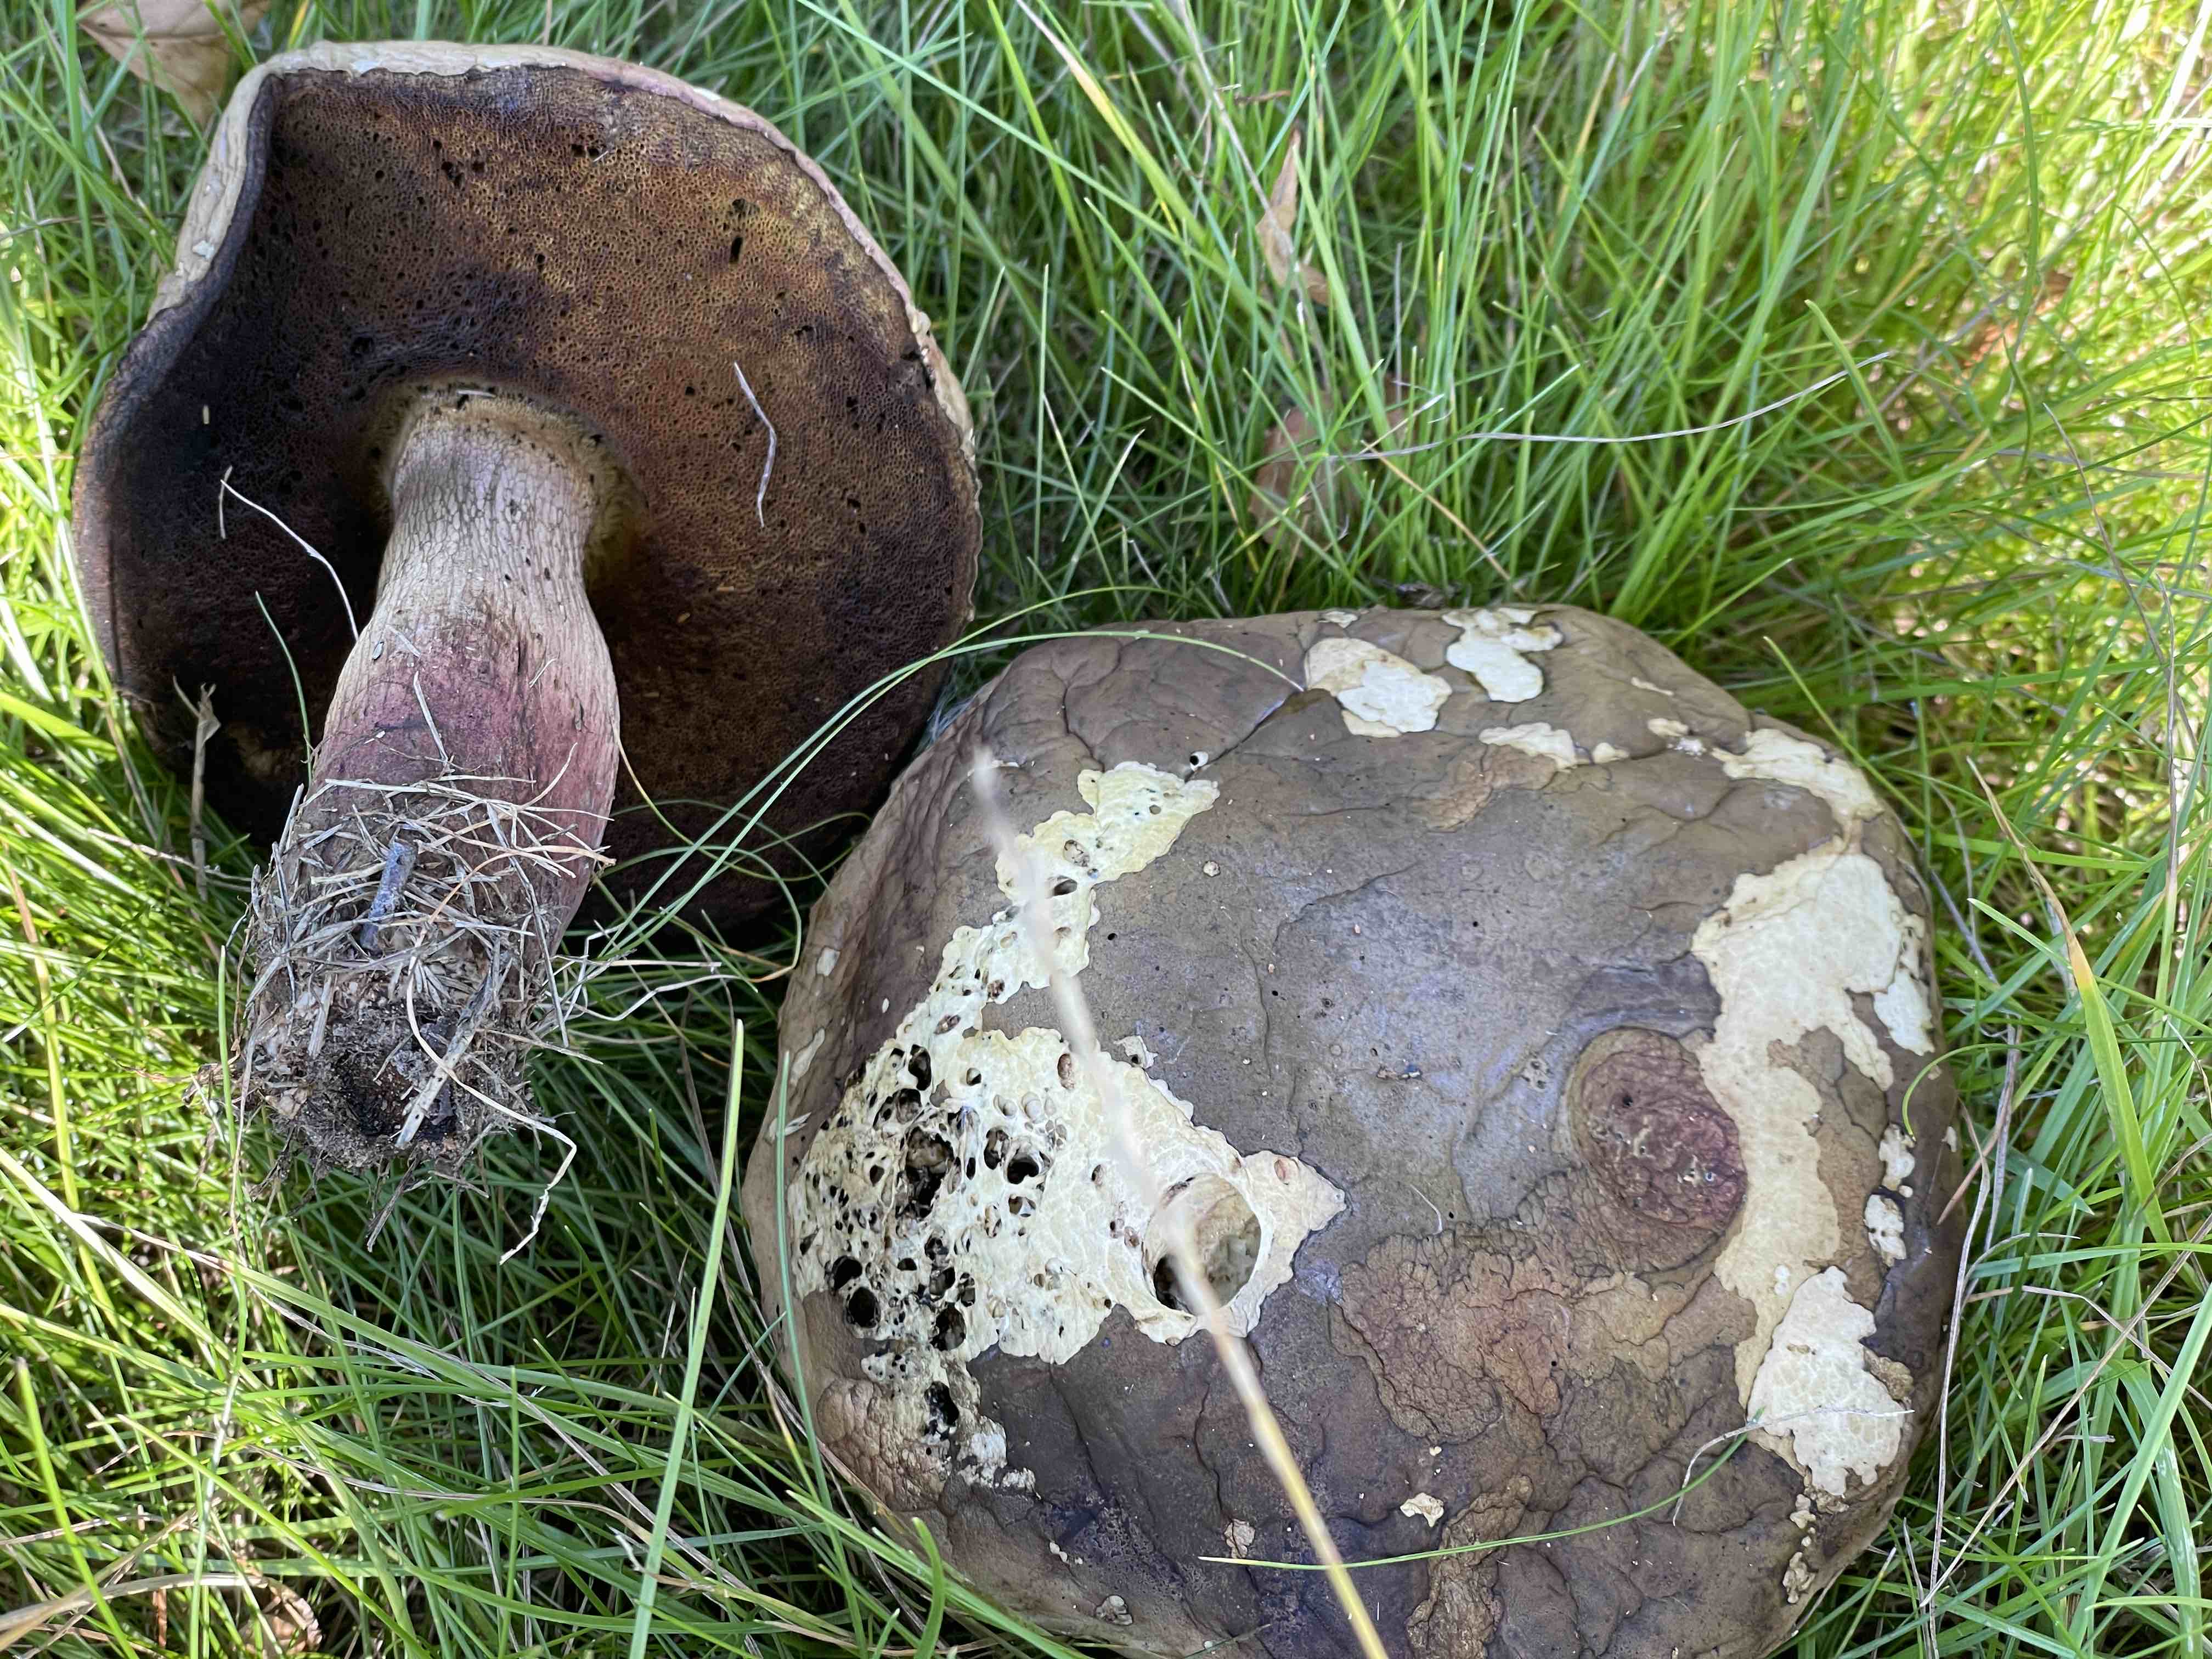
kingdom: Fungi
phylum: Basidiomycota
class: Agaricomycetes
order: Boletales
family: Boletaceae
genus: Suillellus
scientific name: Suillellus luridus
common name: netstokket indigorørhat
